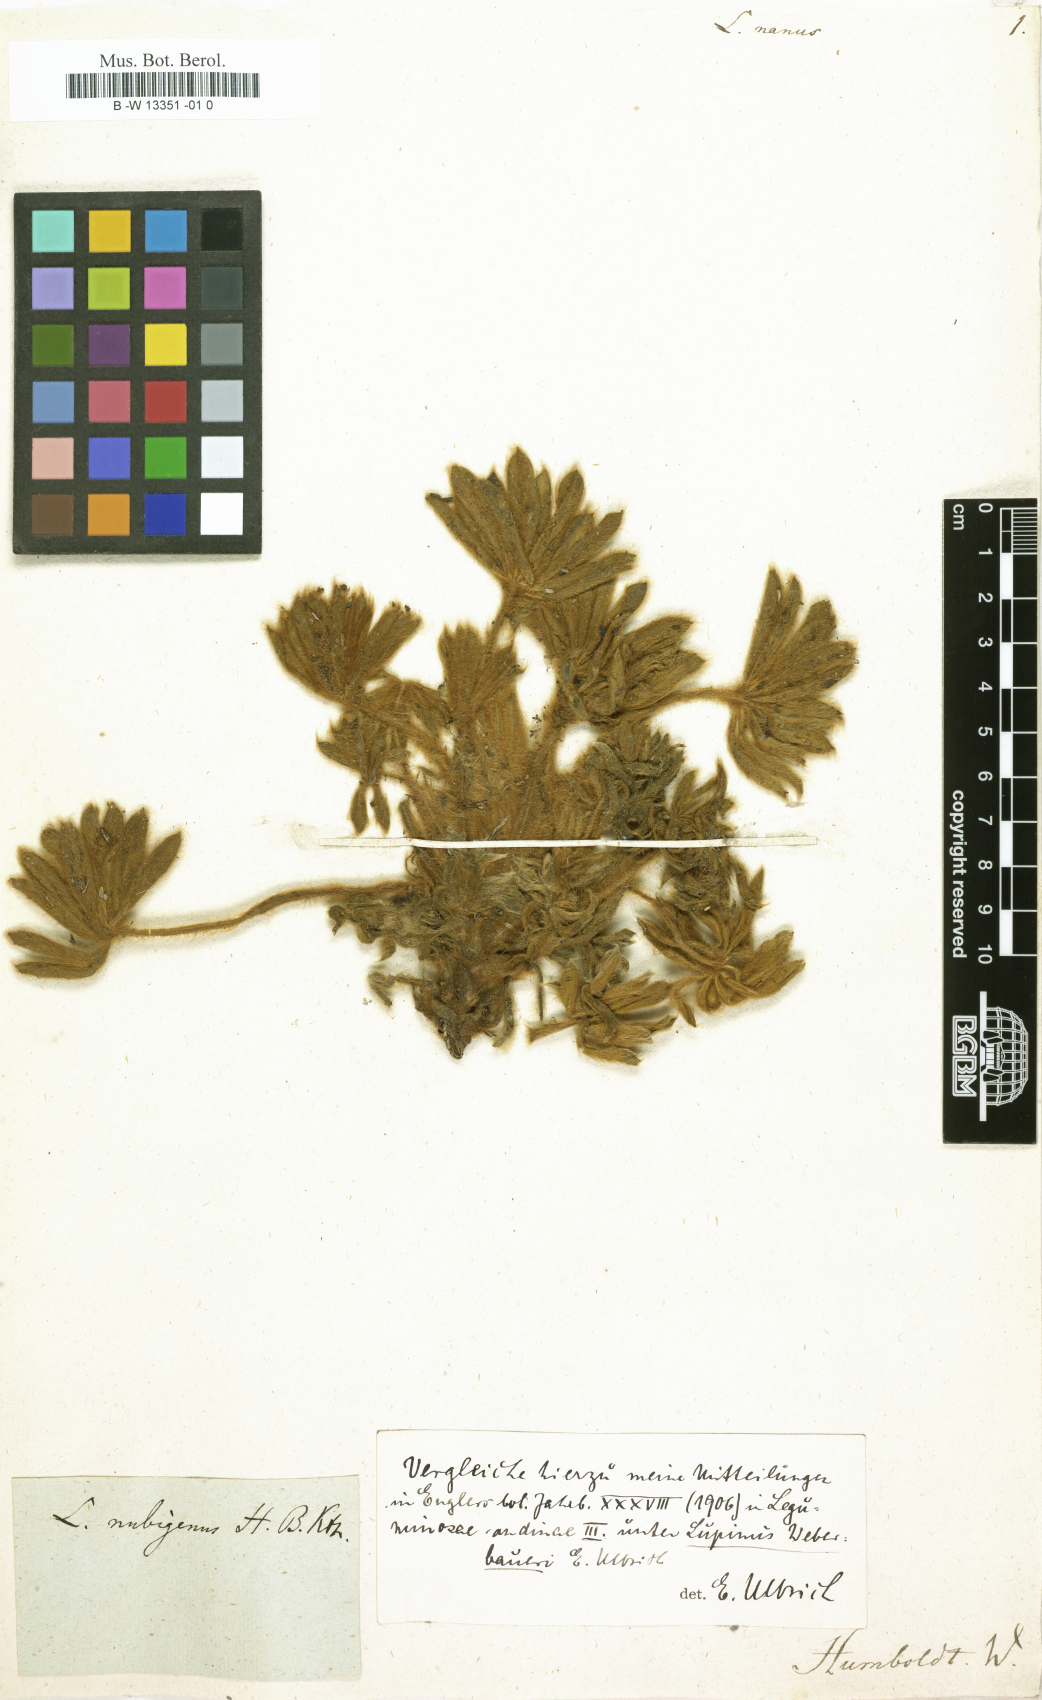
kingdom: Plantae
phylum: Tracheophyta
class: Magnoliopsida
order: Fabales
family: Fabaceae
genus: Lupinus
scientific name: Lupinus nanus
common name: Orean blue lupin
